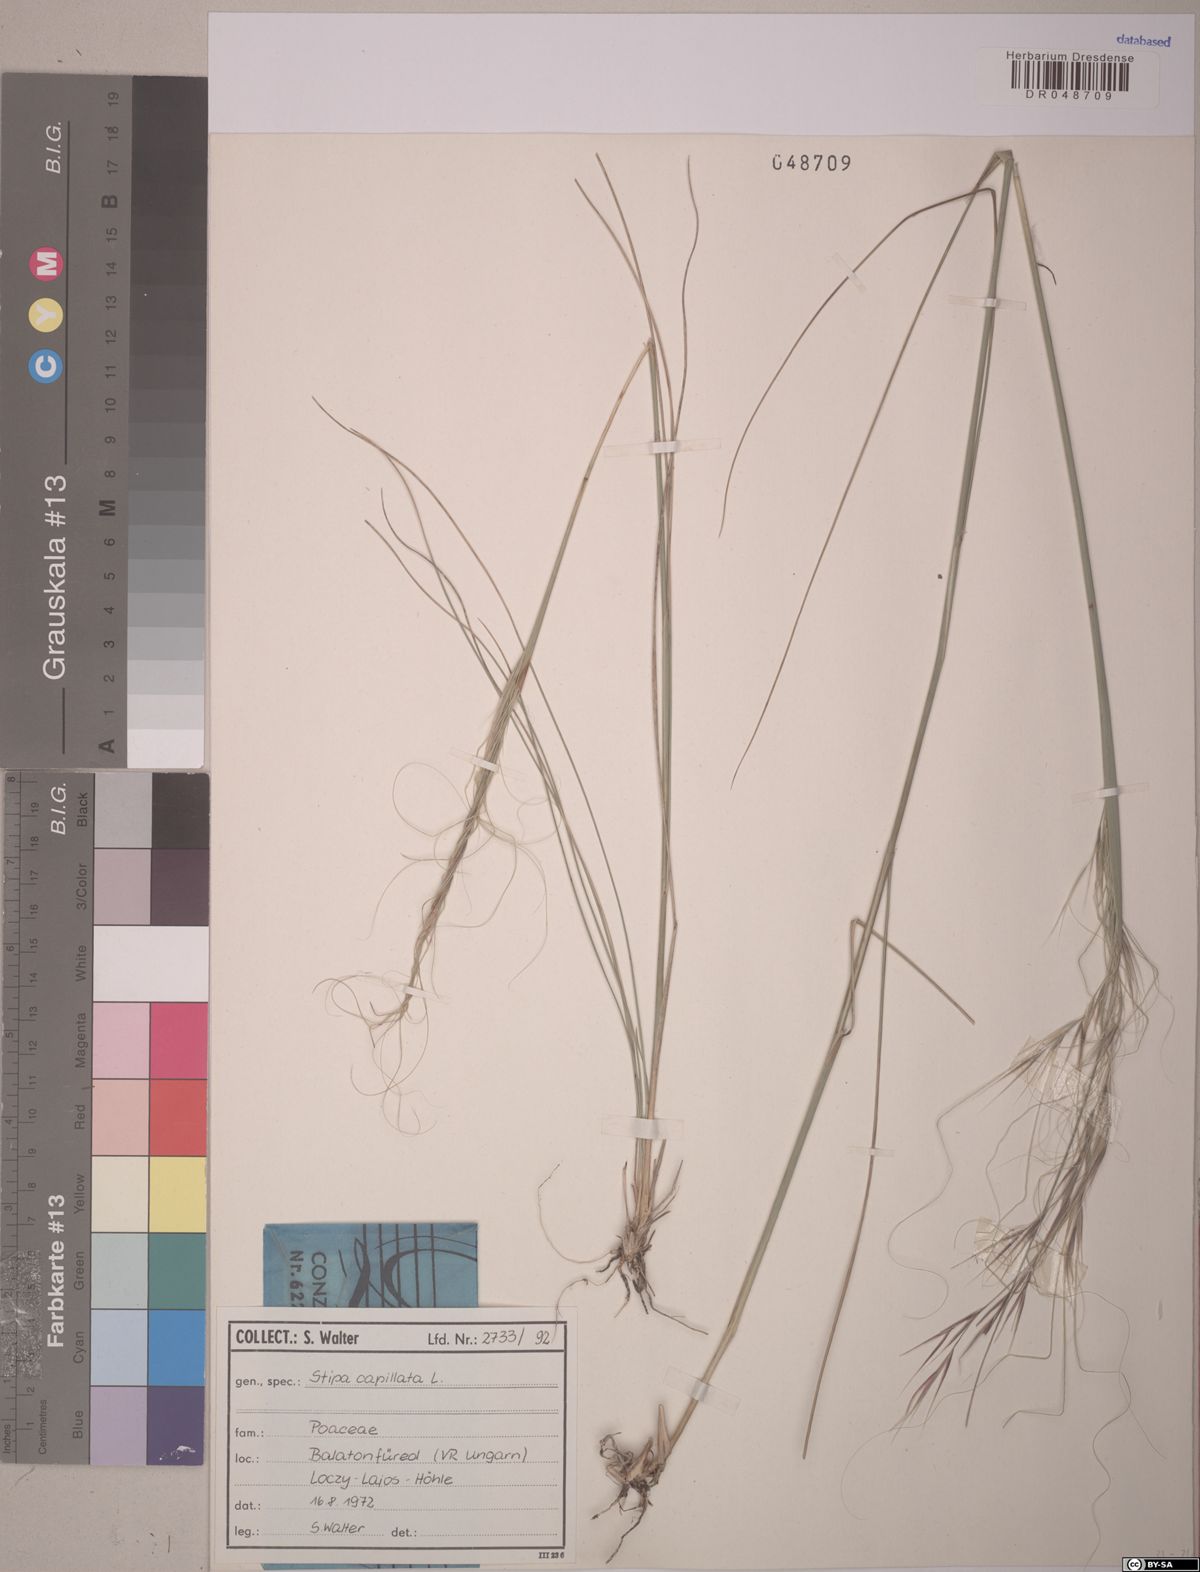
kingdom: Plantae
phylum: Tracheophyta
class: Liliopsida
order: Poales
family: Poaceae
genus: Stipa
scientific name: Stipa capillata
